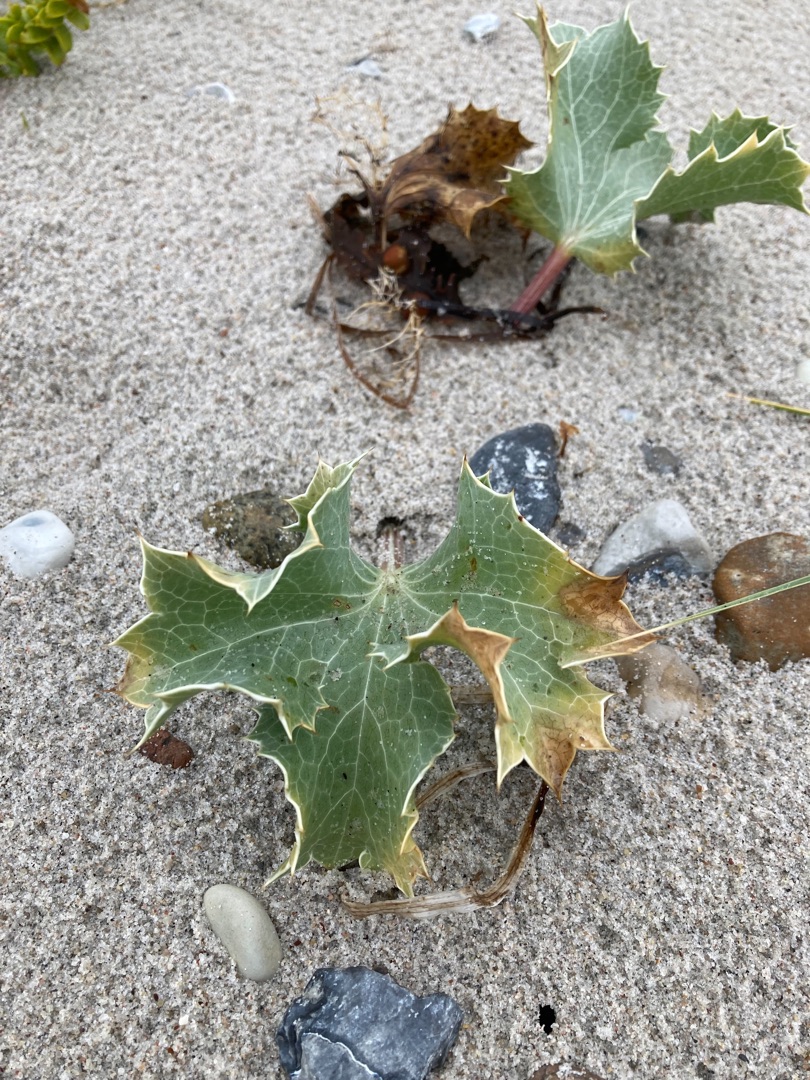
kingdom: Plantae
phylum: Tracheophyta
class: Magnoliopsida
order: Apiales
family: Apiaceae
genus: Eryngium
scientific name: Eryngium maritimum
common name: Strand-mandstro
